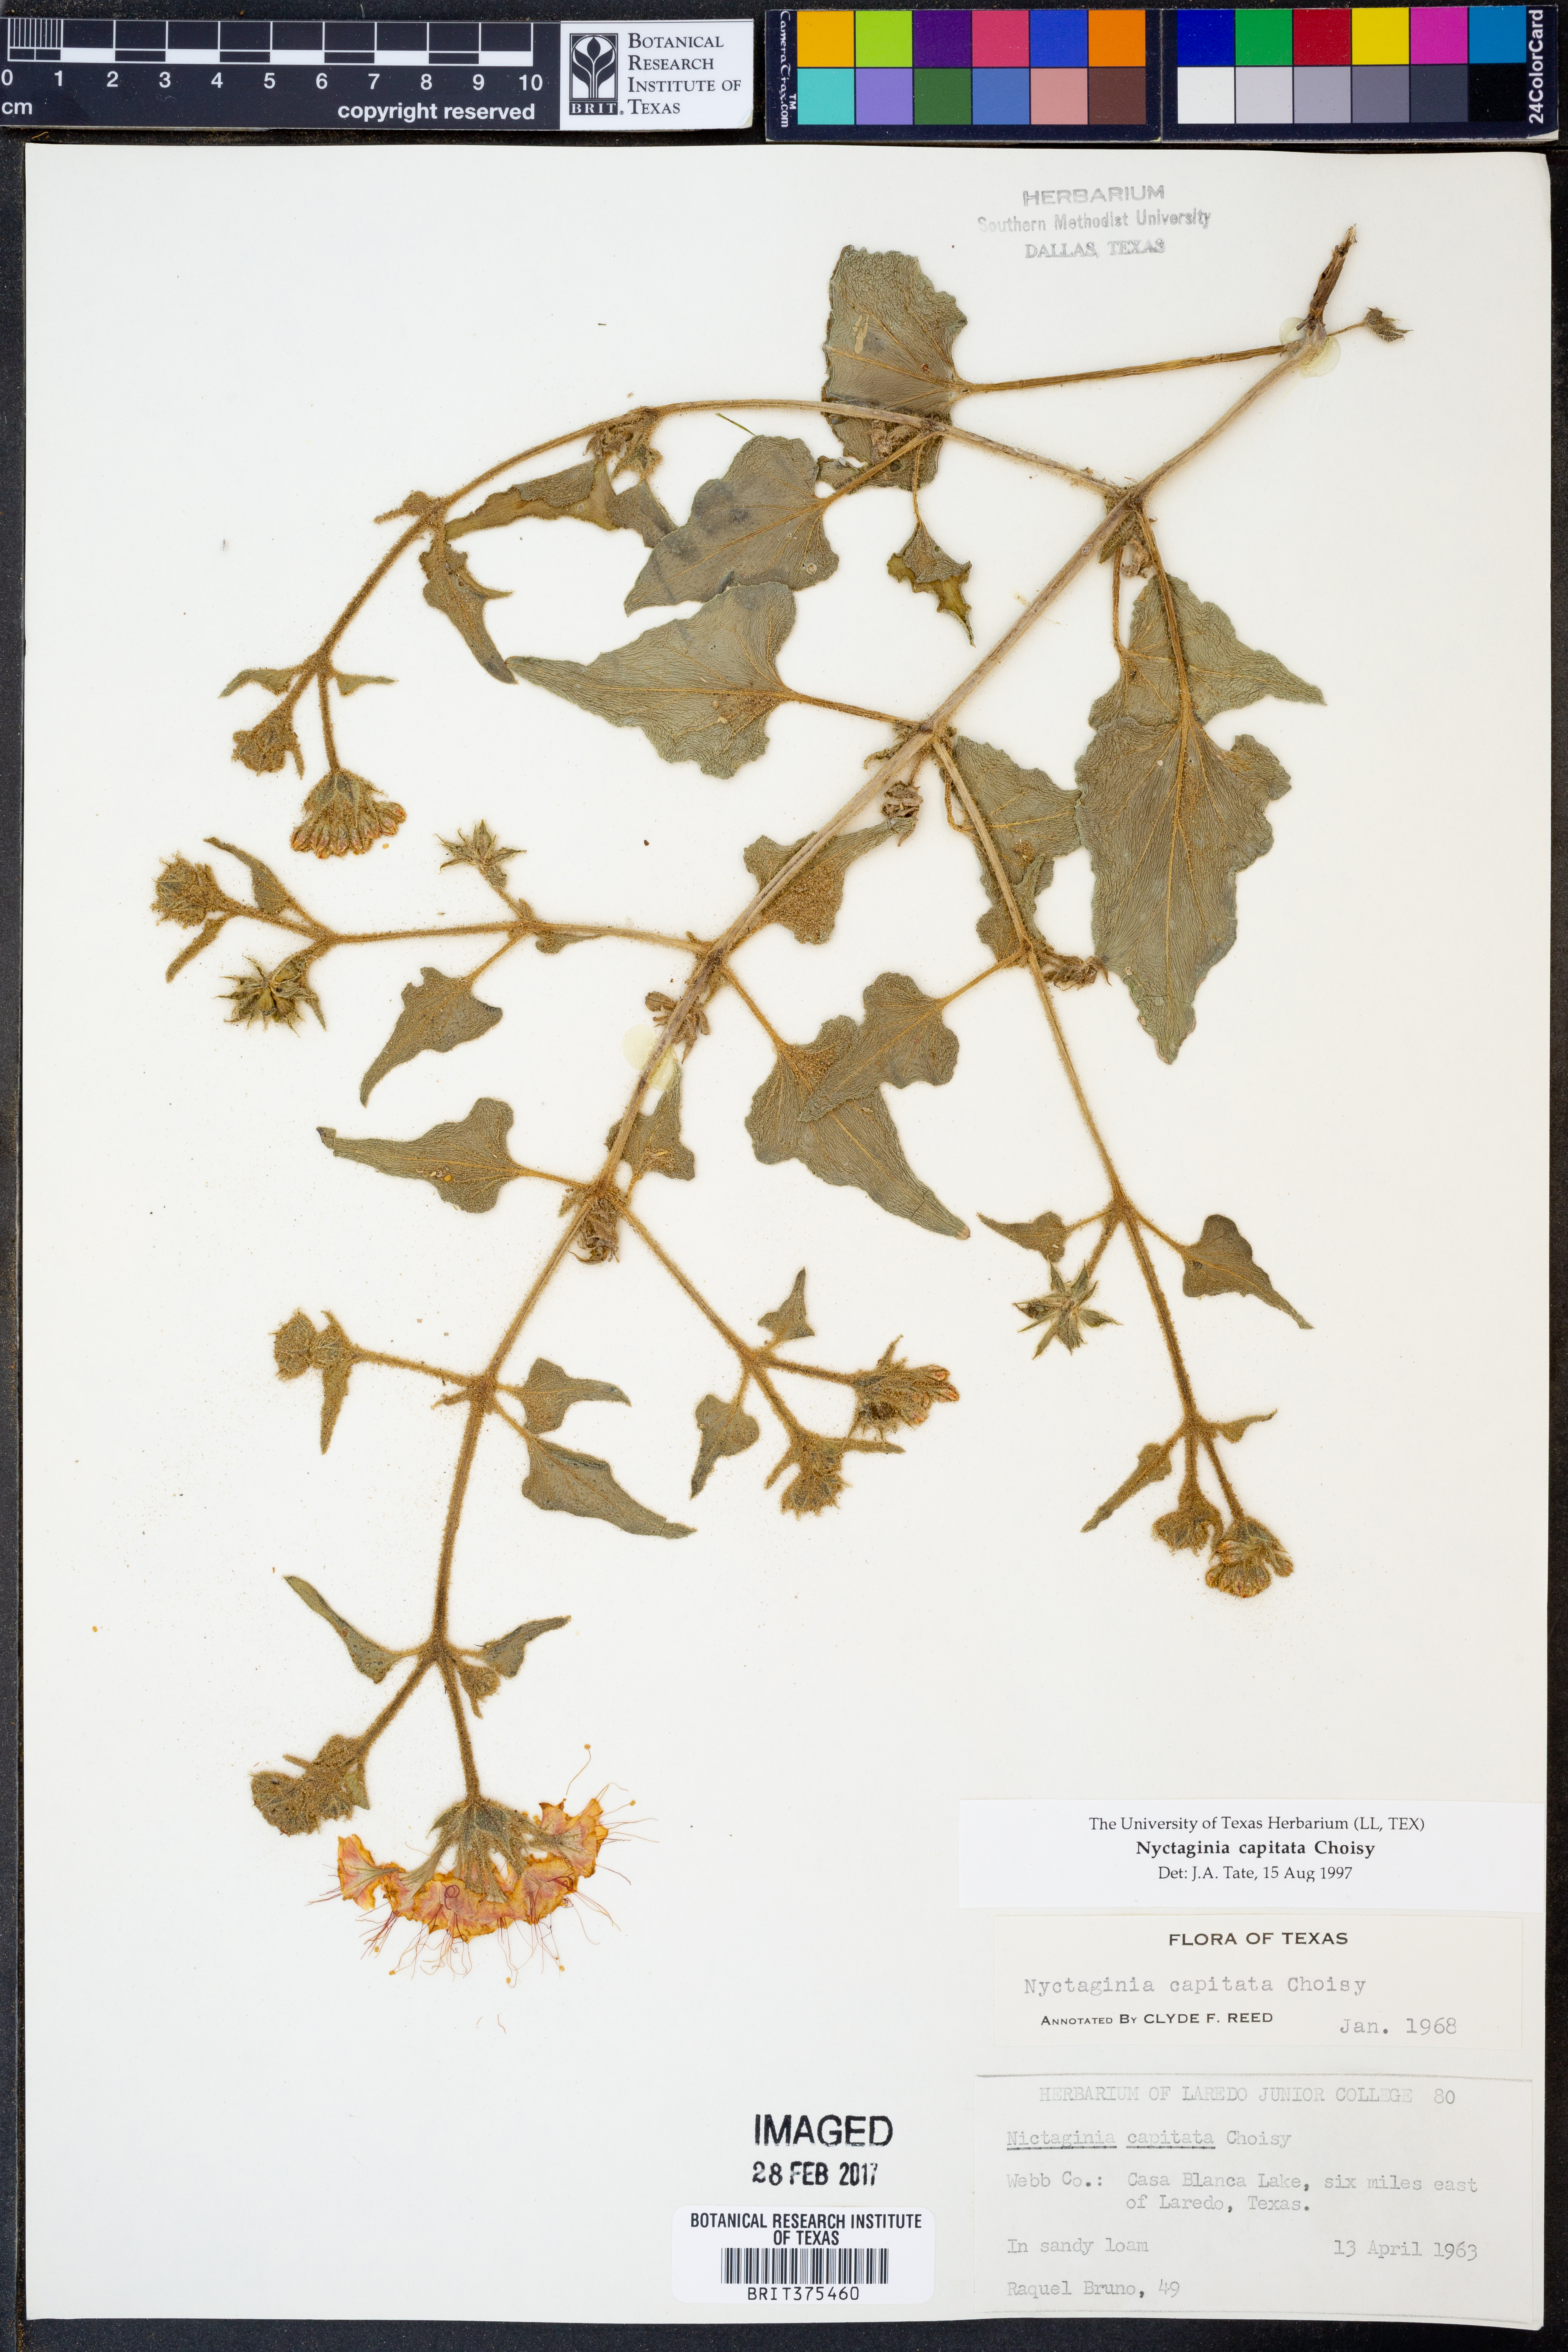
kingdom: Plantae
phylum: Tracheophyta
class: Magnoliopsida
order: Caryophyllales
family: Nyctaginaceae
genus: Nyctaginia
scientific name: Nyctaginia capitata
